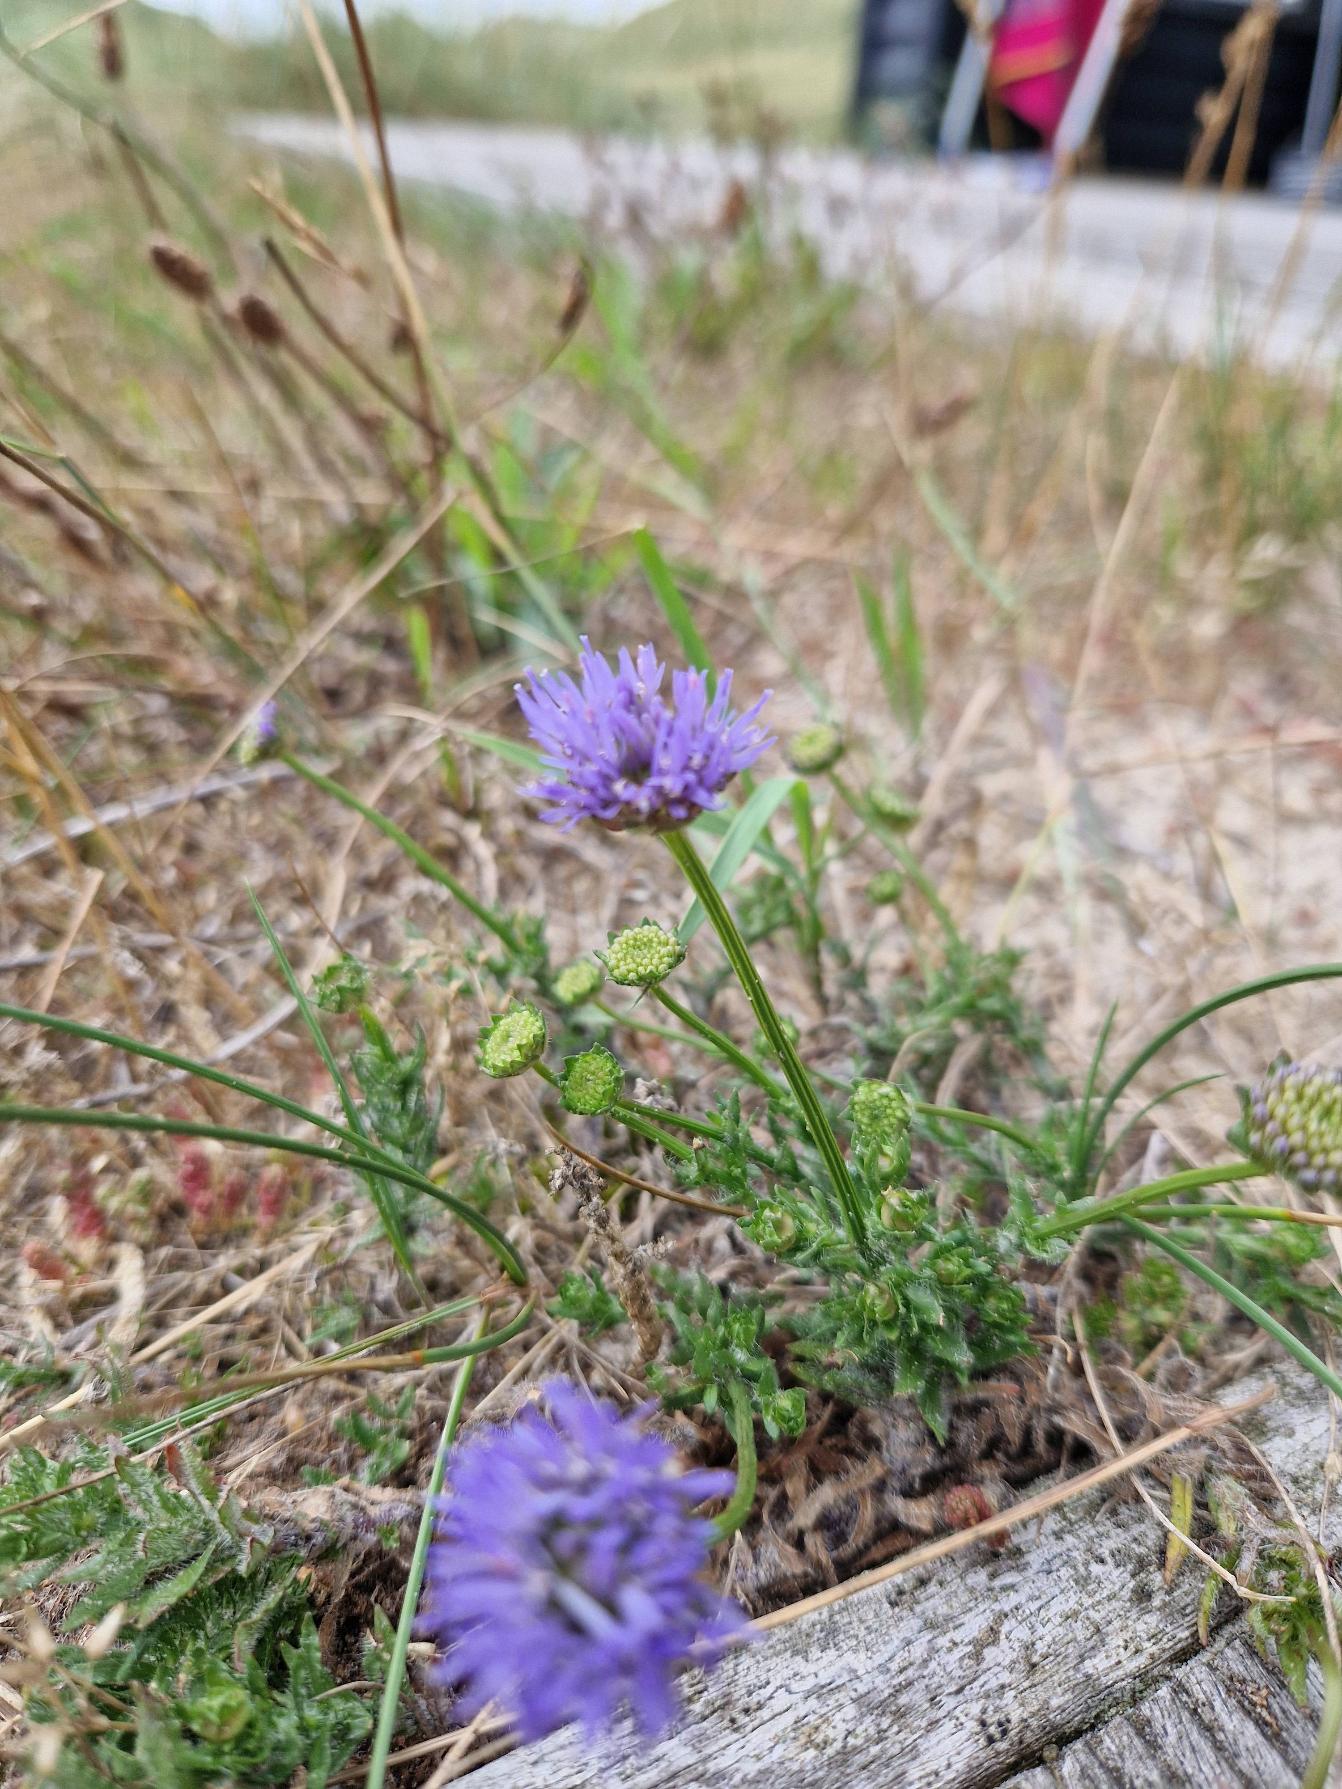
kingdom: Plantae
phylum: Tracheophyta
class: Magnoliopsida
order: Asterales
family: Campanulaceae
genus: Jasione
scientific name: Jasione montana
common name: Blåmunke
